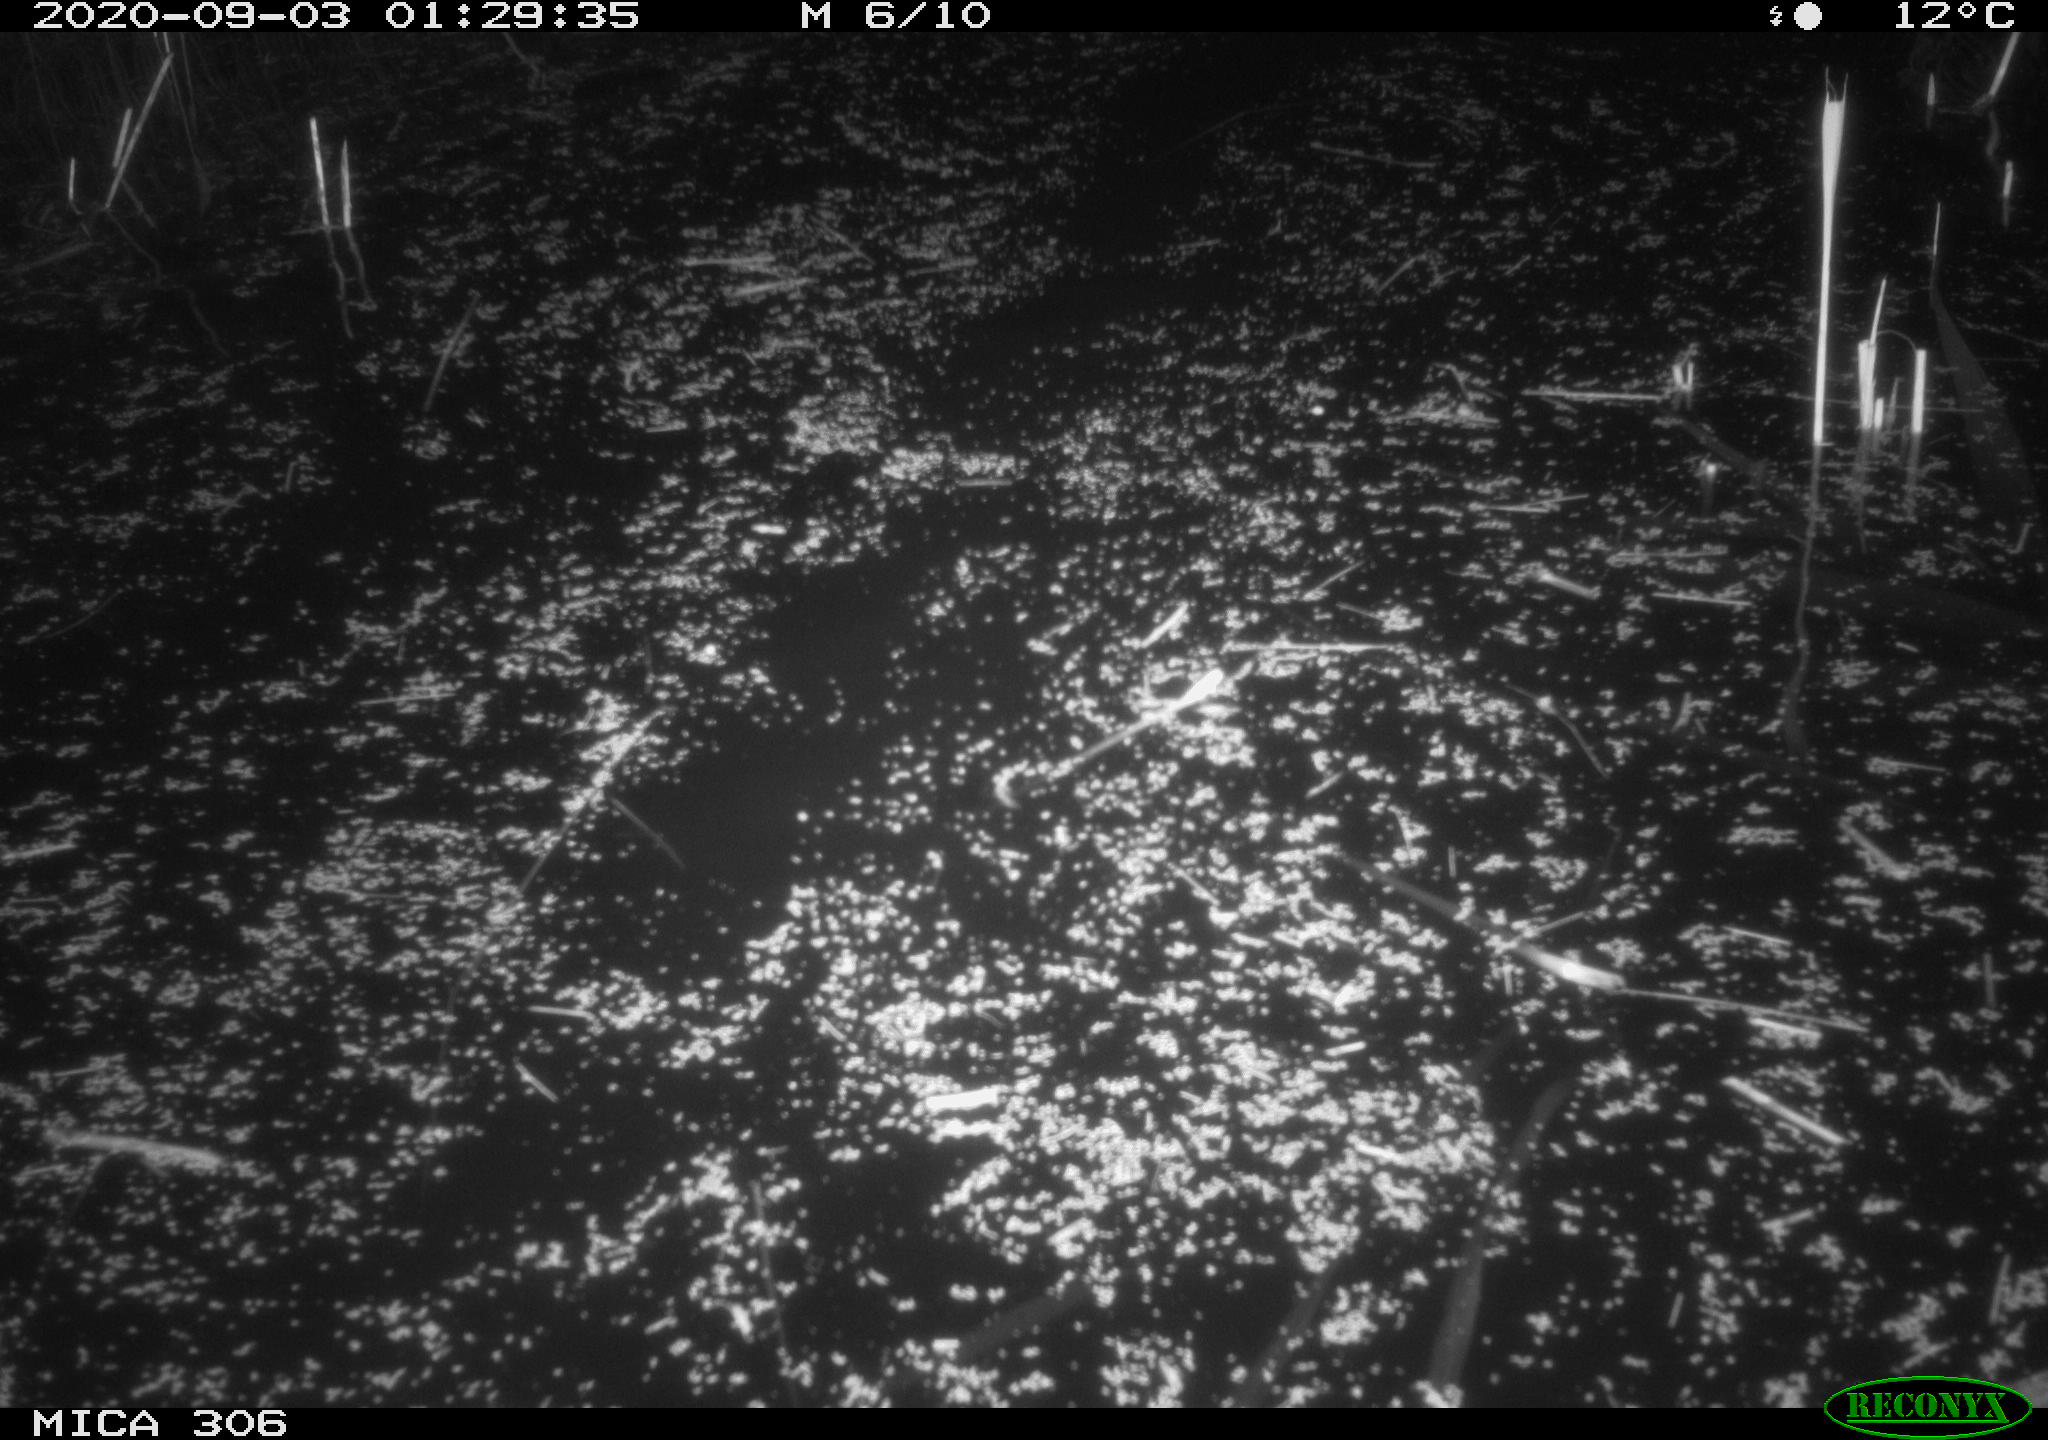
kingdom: Animalia
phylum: Chordata
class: Mammalia
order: Rodentia
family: Cricetidae
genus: Ondatra
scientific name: Ondatra zibethicus
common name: Muskrat
